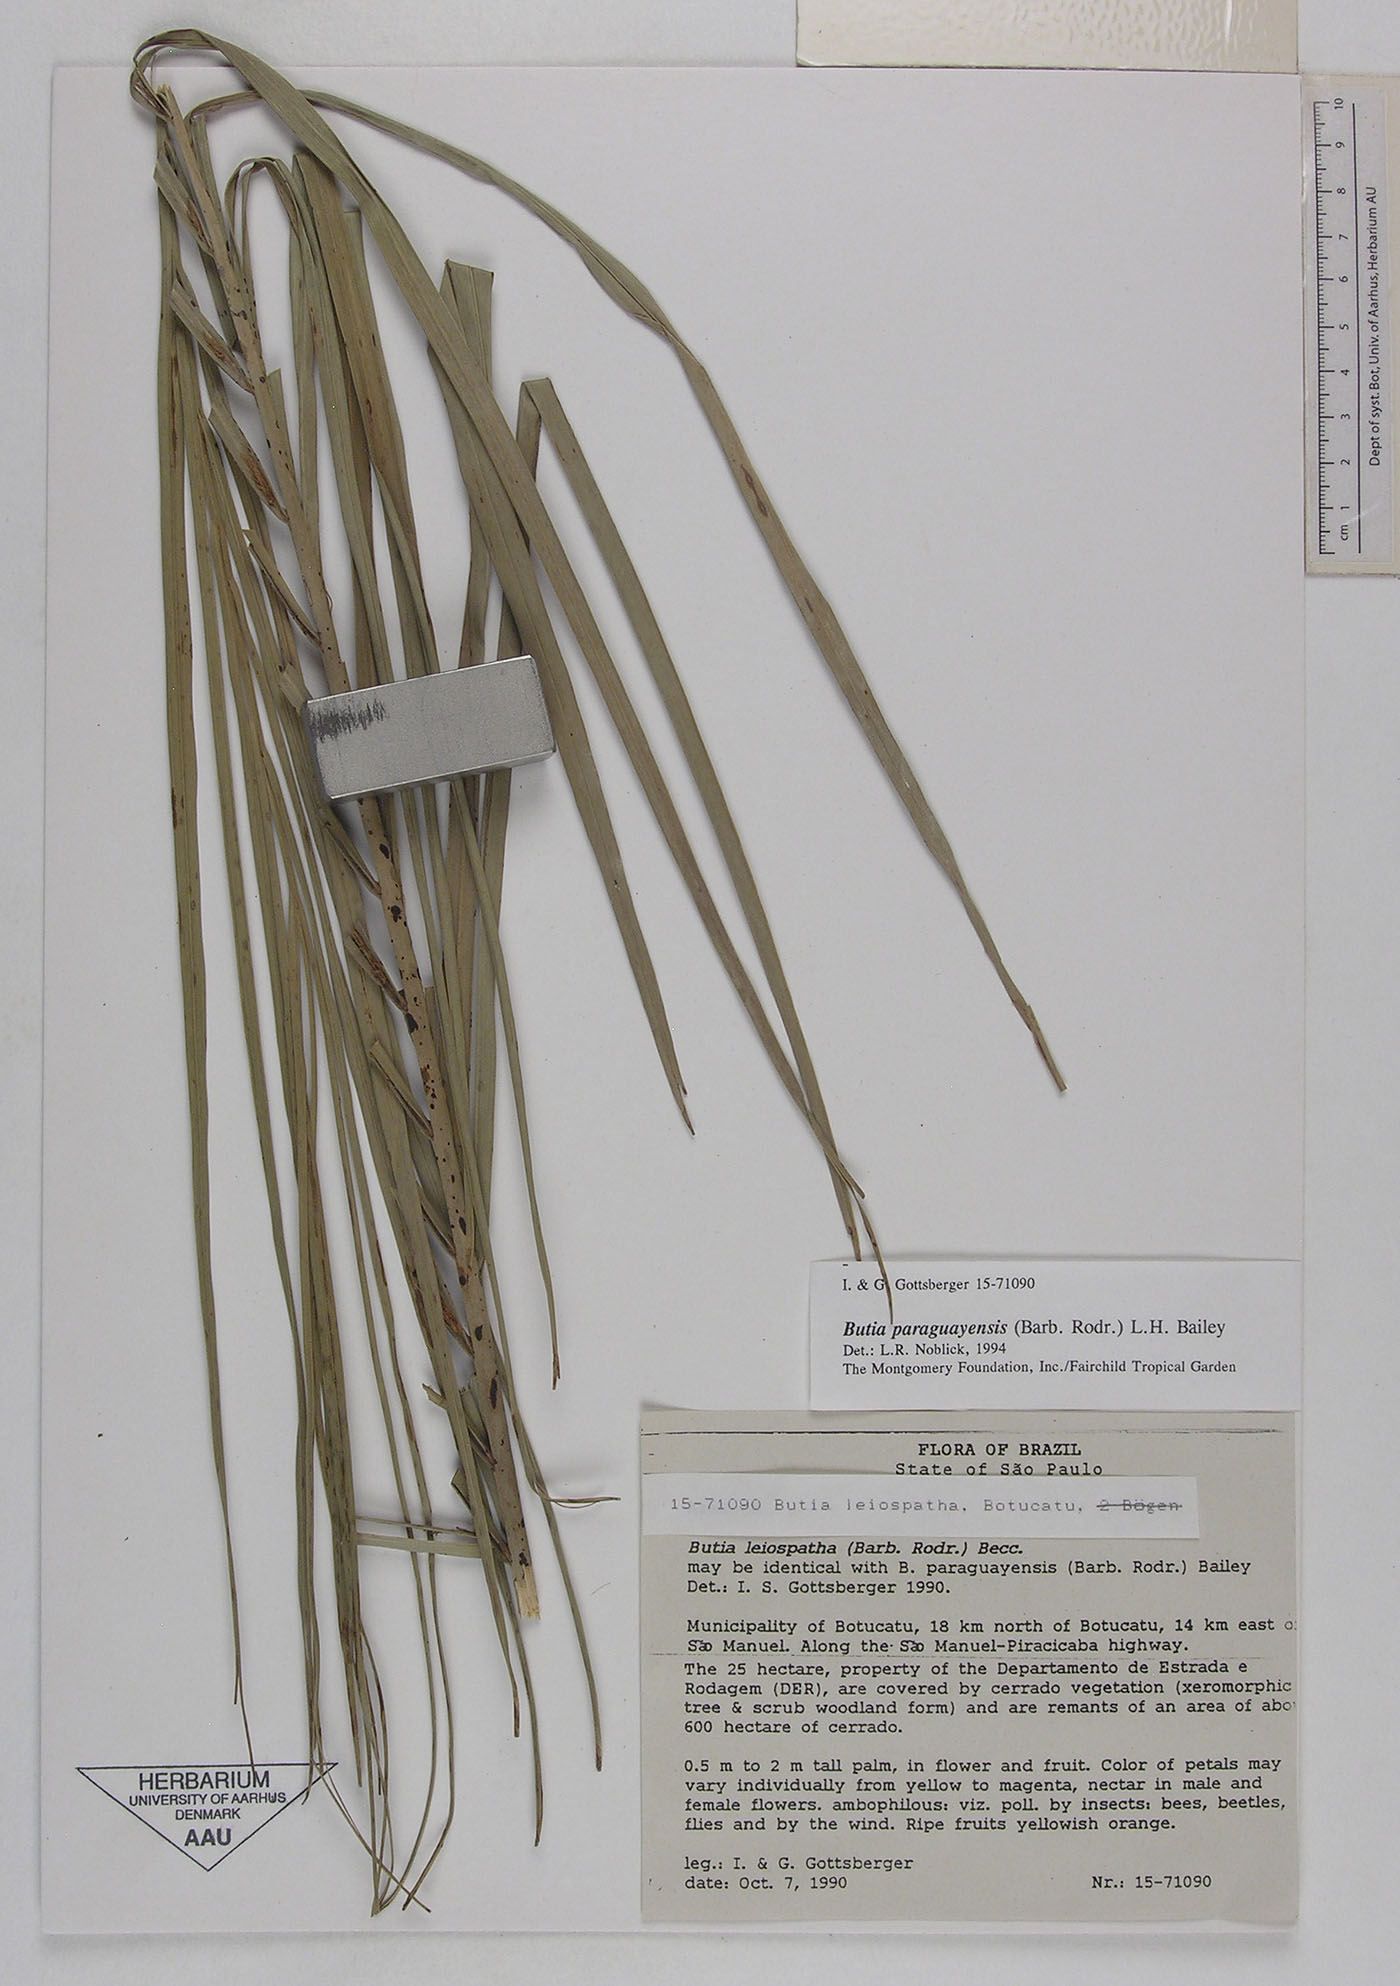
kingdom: Plantae
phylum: Tracheophyta
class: Liliopsida
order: Arecales
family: Arecaceae
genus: Butia
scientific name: Butia paraguayensis
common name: Dwarf yatay palm
